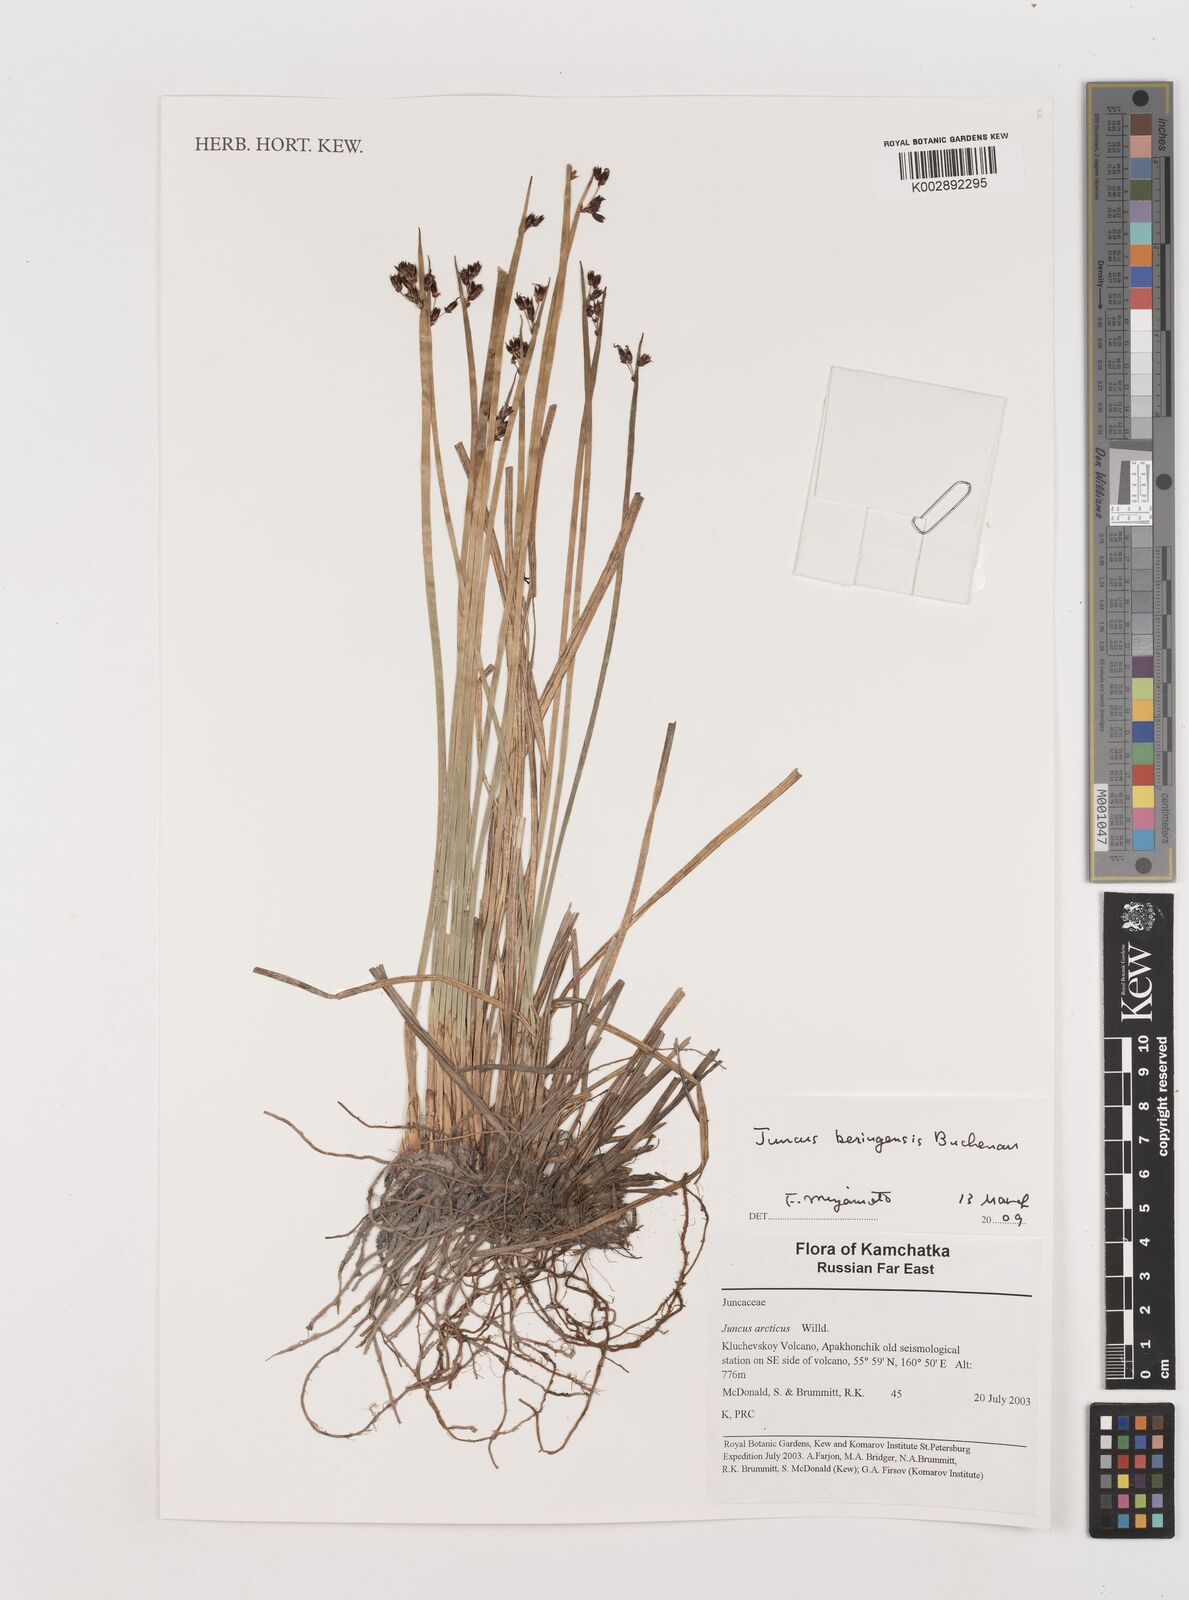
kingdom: Plantae
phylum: Tracheophyta
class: Liliopsida
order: Poales
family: Juncaceae
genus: Juncus
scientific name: Juncus arcticus
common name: Arctic rush
